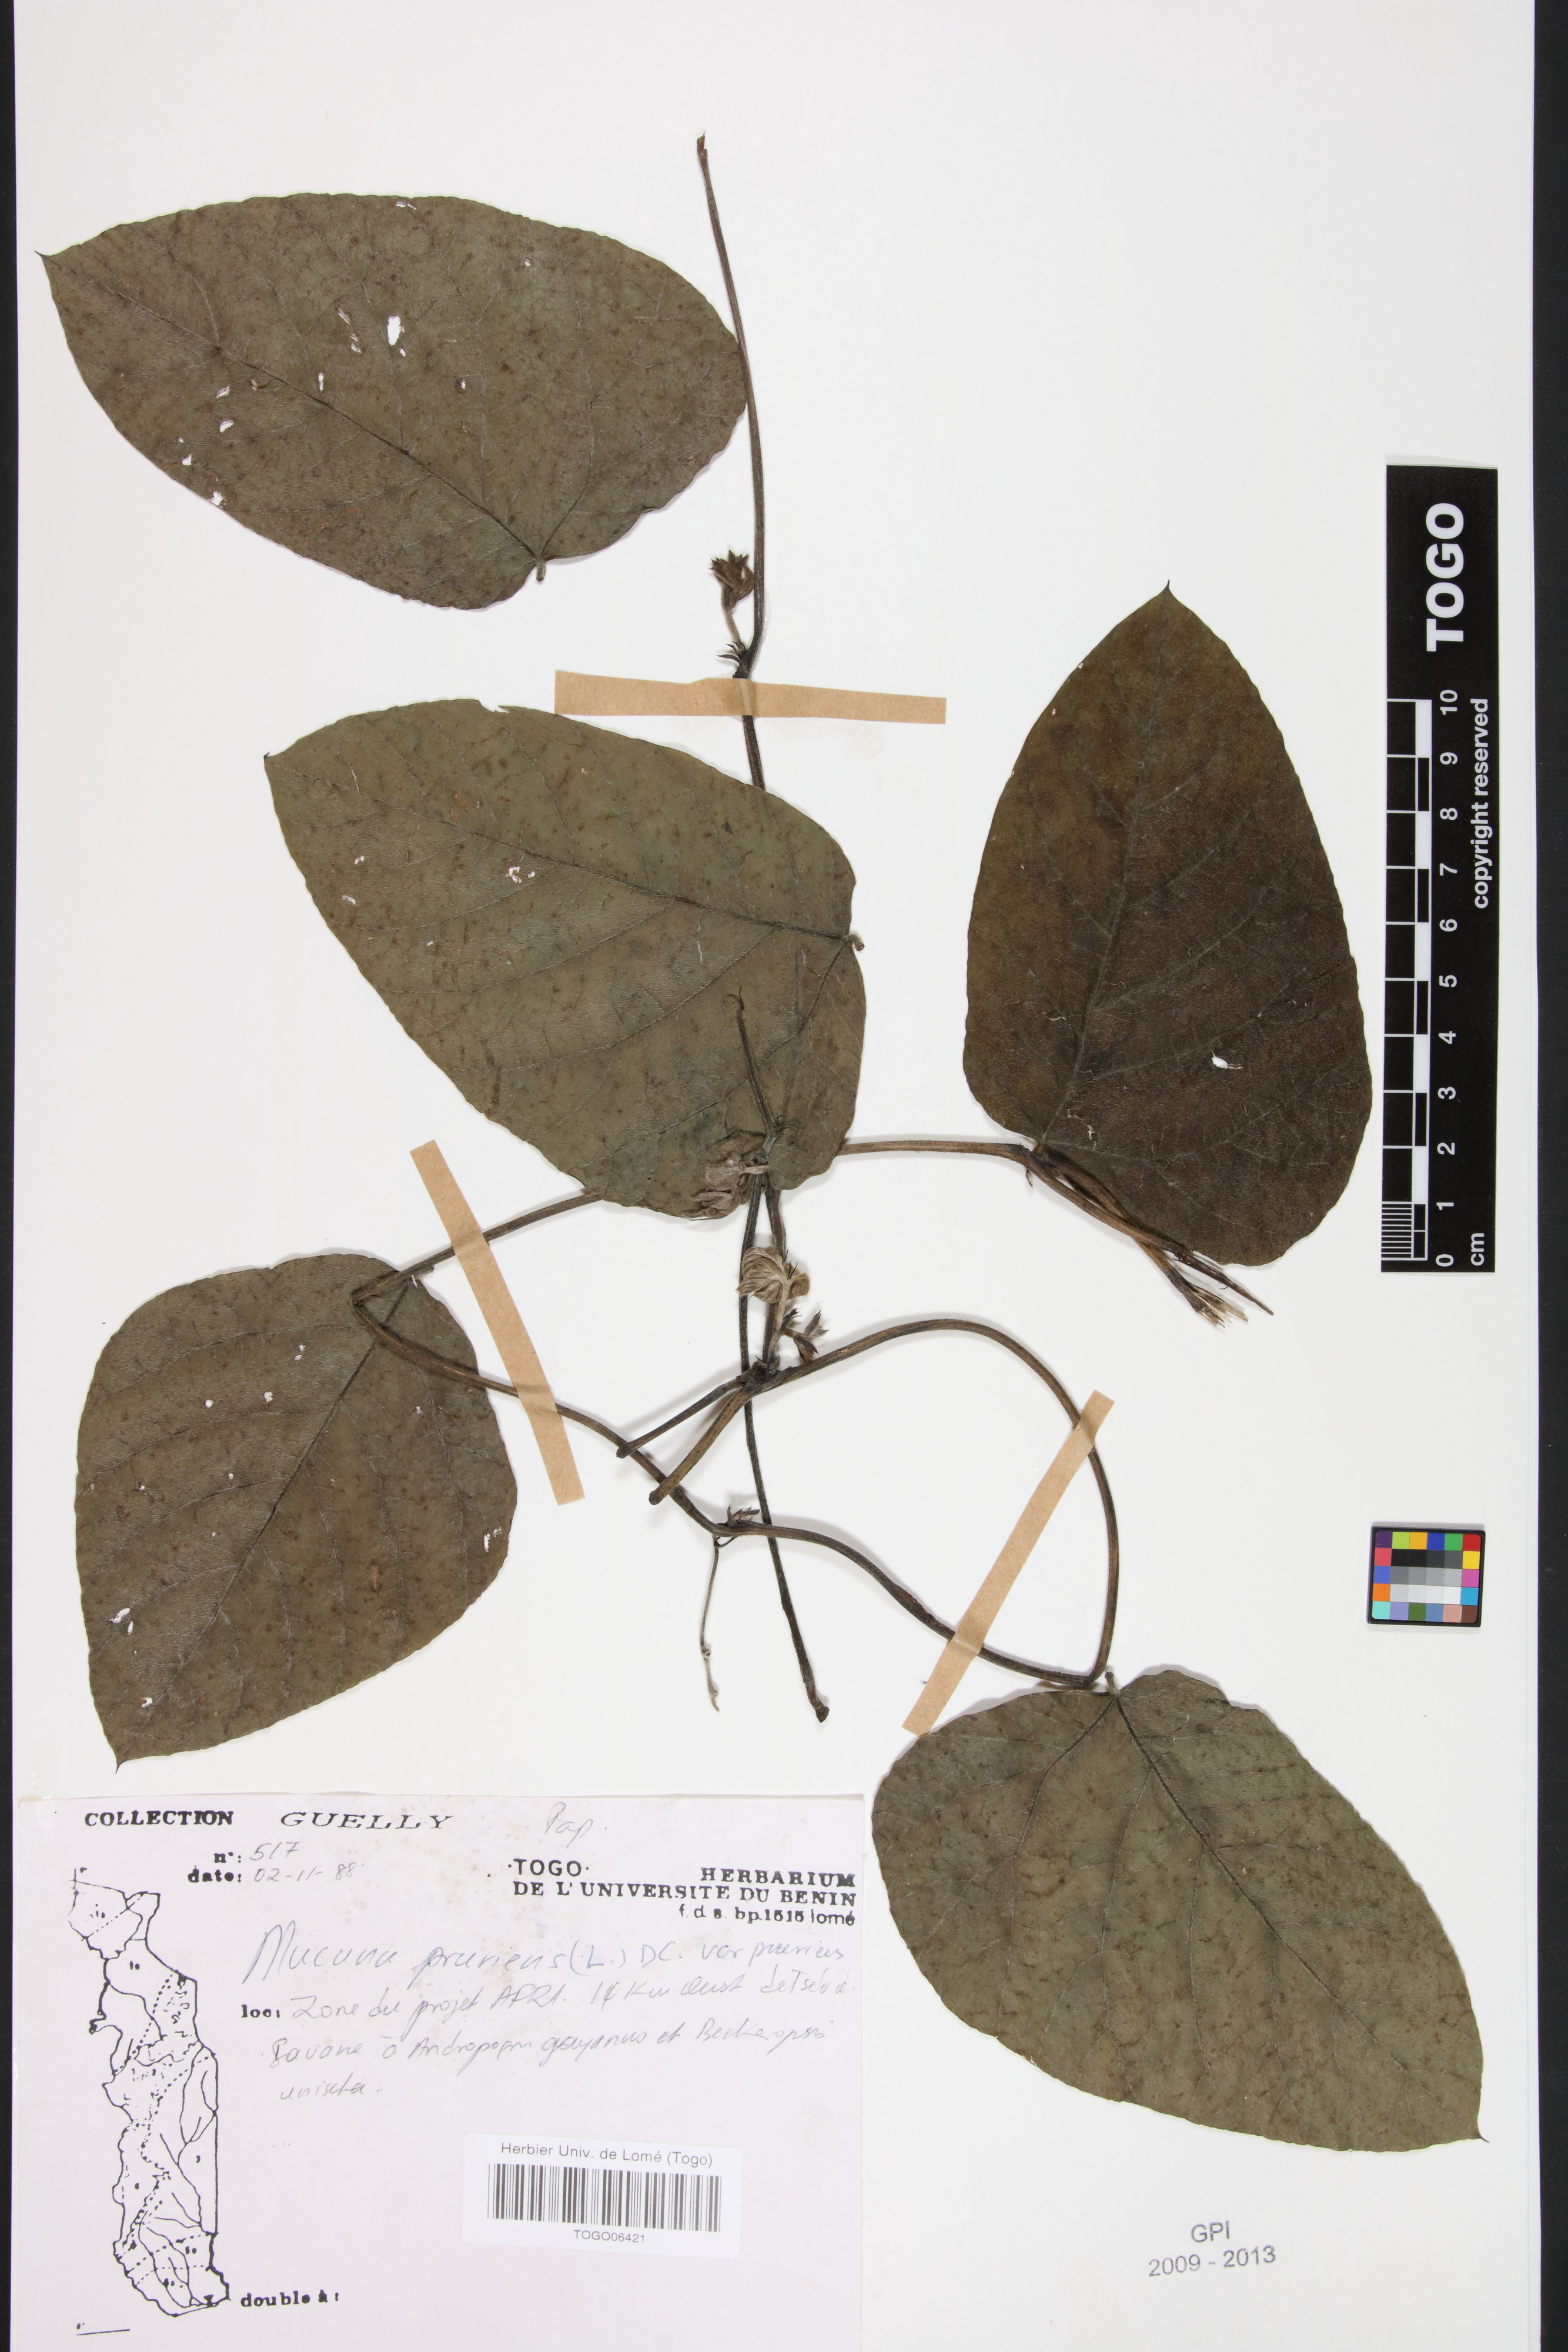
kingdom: Plantae
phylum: Tracheophyta
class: Magnoliopsida
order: Fabales
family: Fabaceae
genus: Mucuna
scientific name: Mucuna pruriens
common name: Cow-itch
